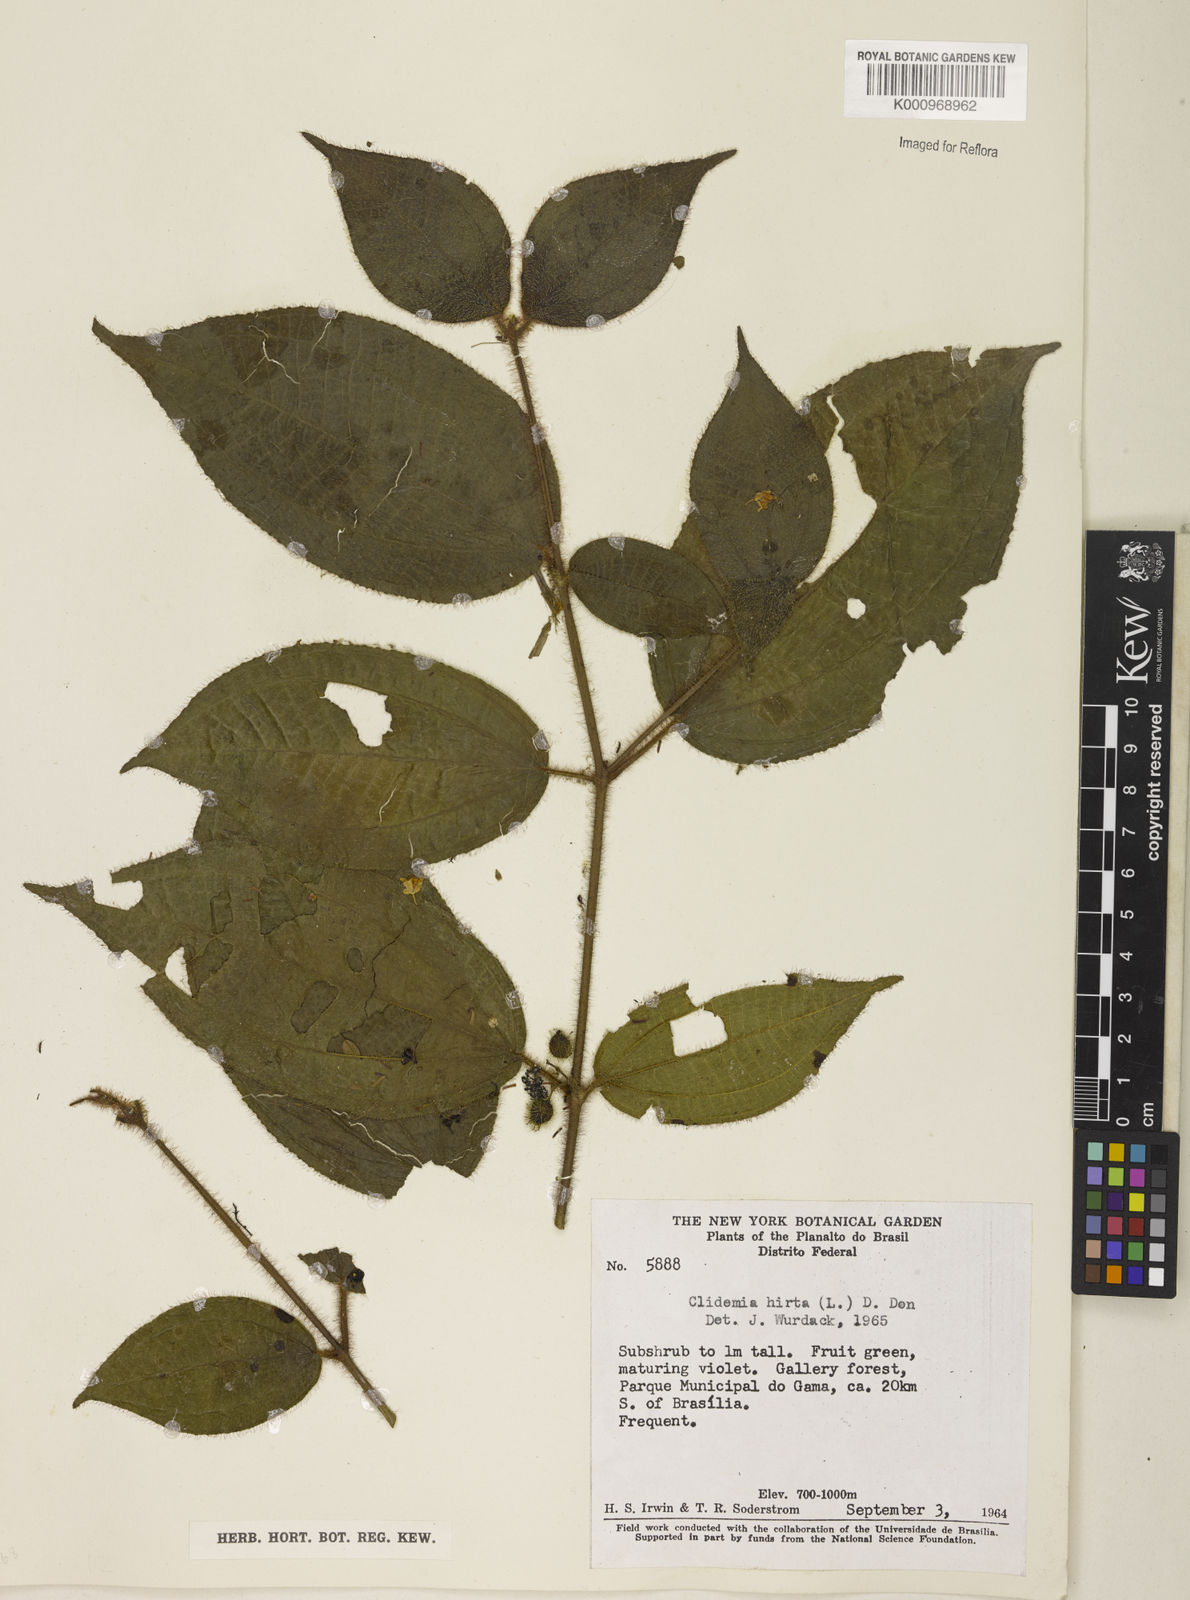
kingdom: Plantae
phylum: Tracheophyta
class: Magnoliopsida
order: Myrtales
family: Melastomataceae
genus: Miconia
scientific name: Miconia crenata
